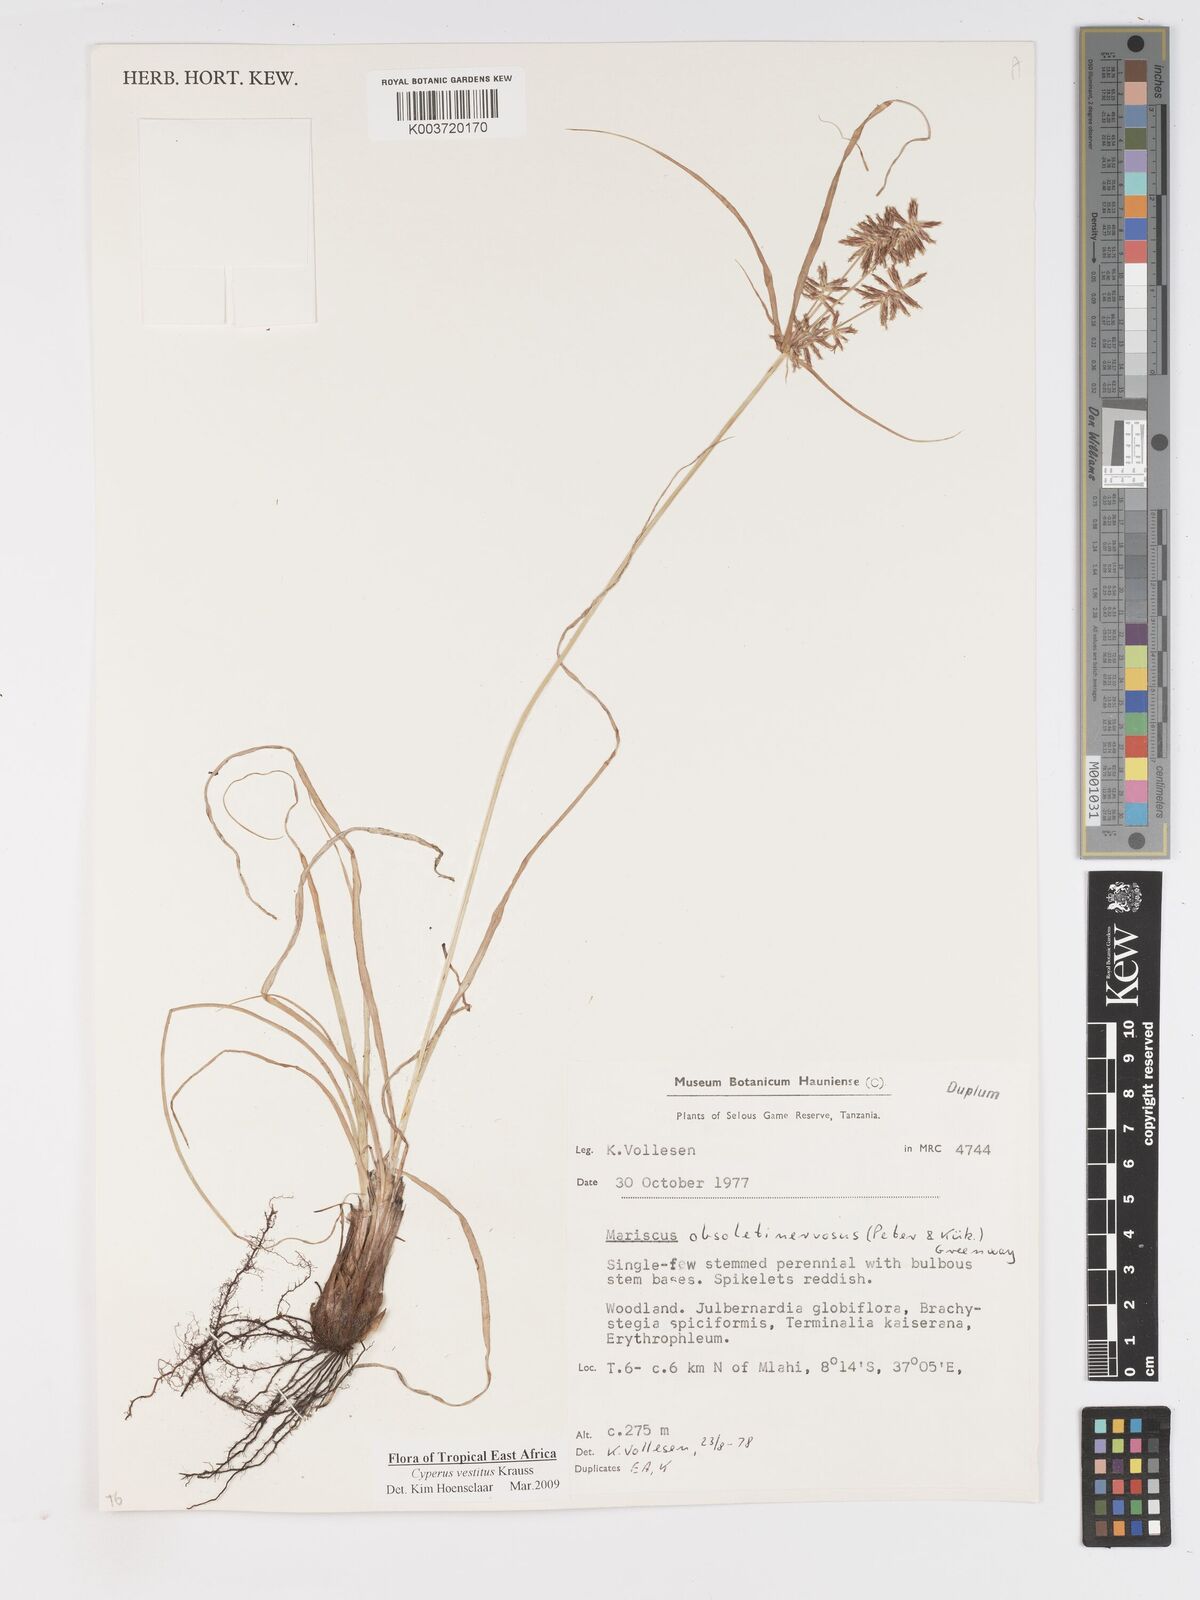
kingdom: Plantae
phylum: Tracheophyta
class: Liliopsida
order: Poales
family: Cyperaceae
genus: Cyperus
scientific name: Cyperus vestitus
